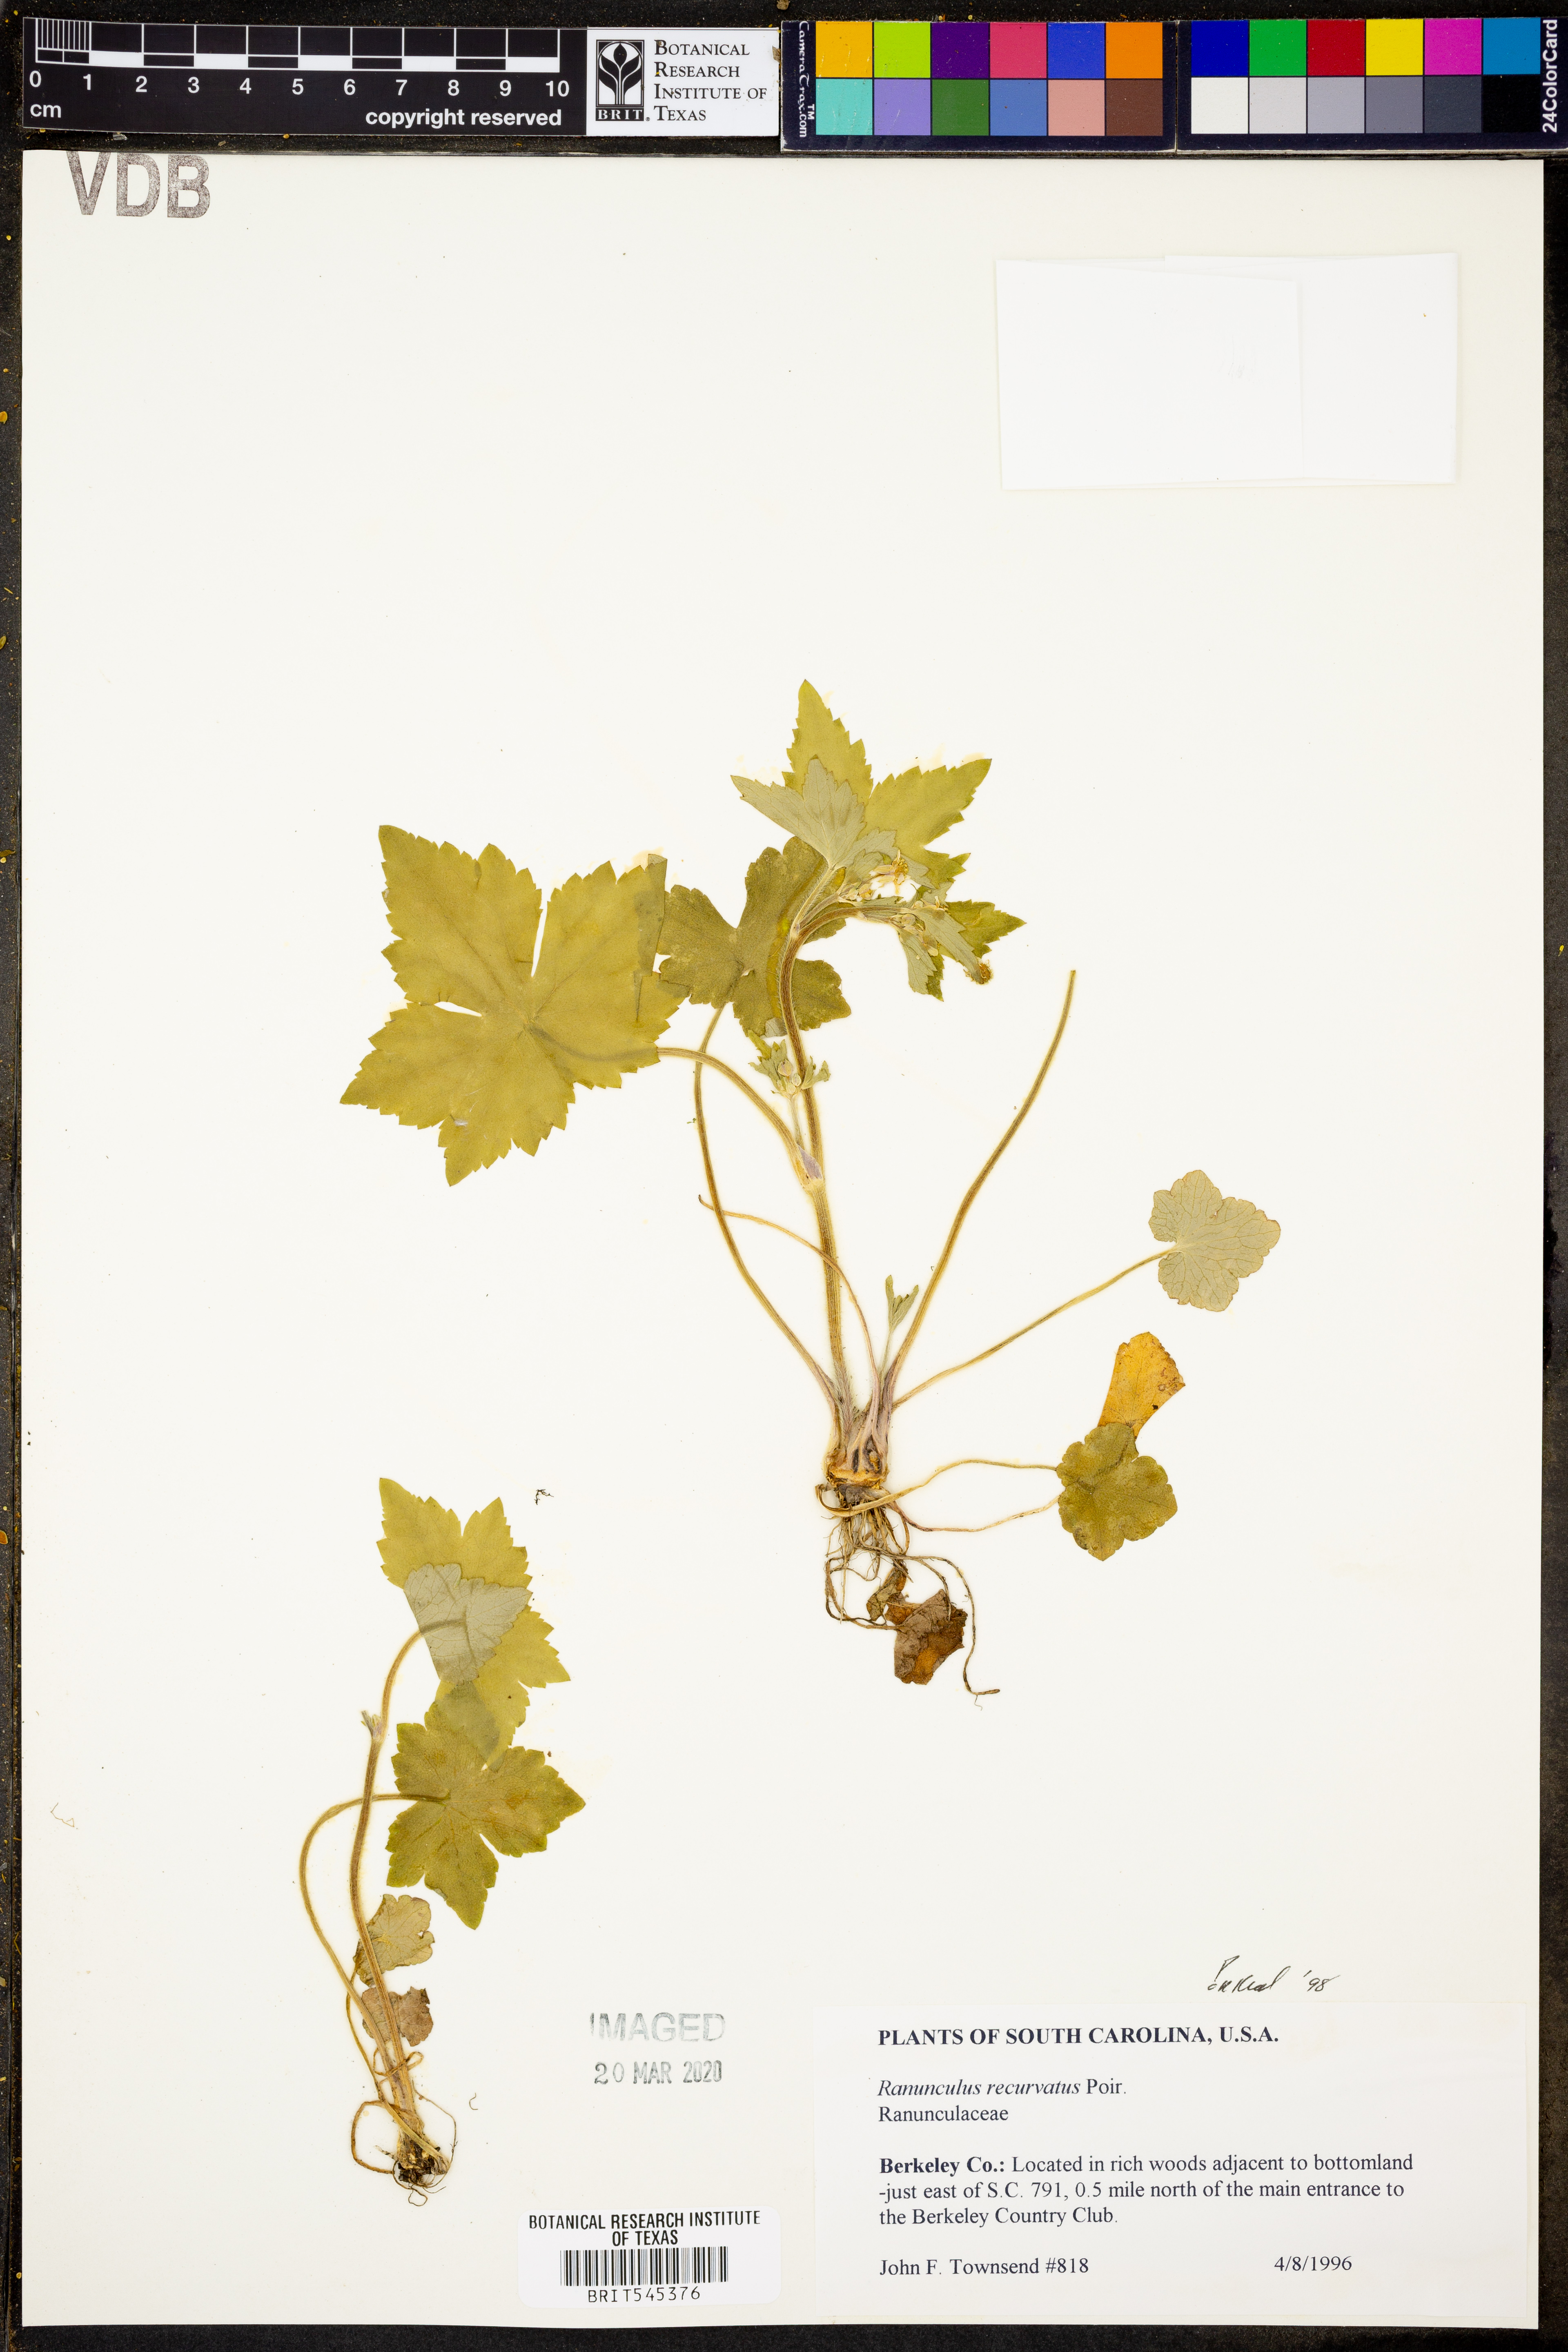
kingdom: Plantae
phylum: Tracheophyta
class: Magnoliopsida
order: Ranunculales
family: Ranunculaceae
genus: Ranunculus
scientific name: Ranunculus recurvatus
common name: Blisterwort
